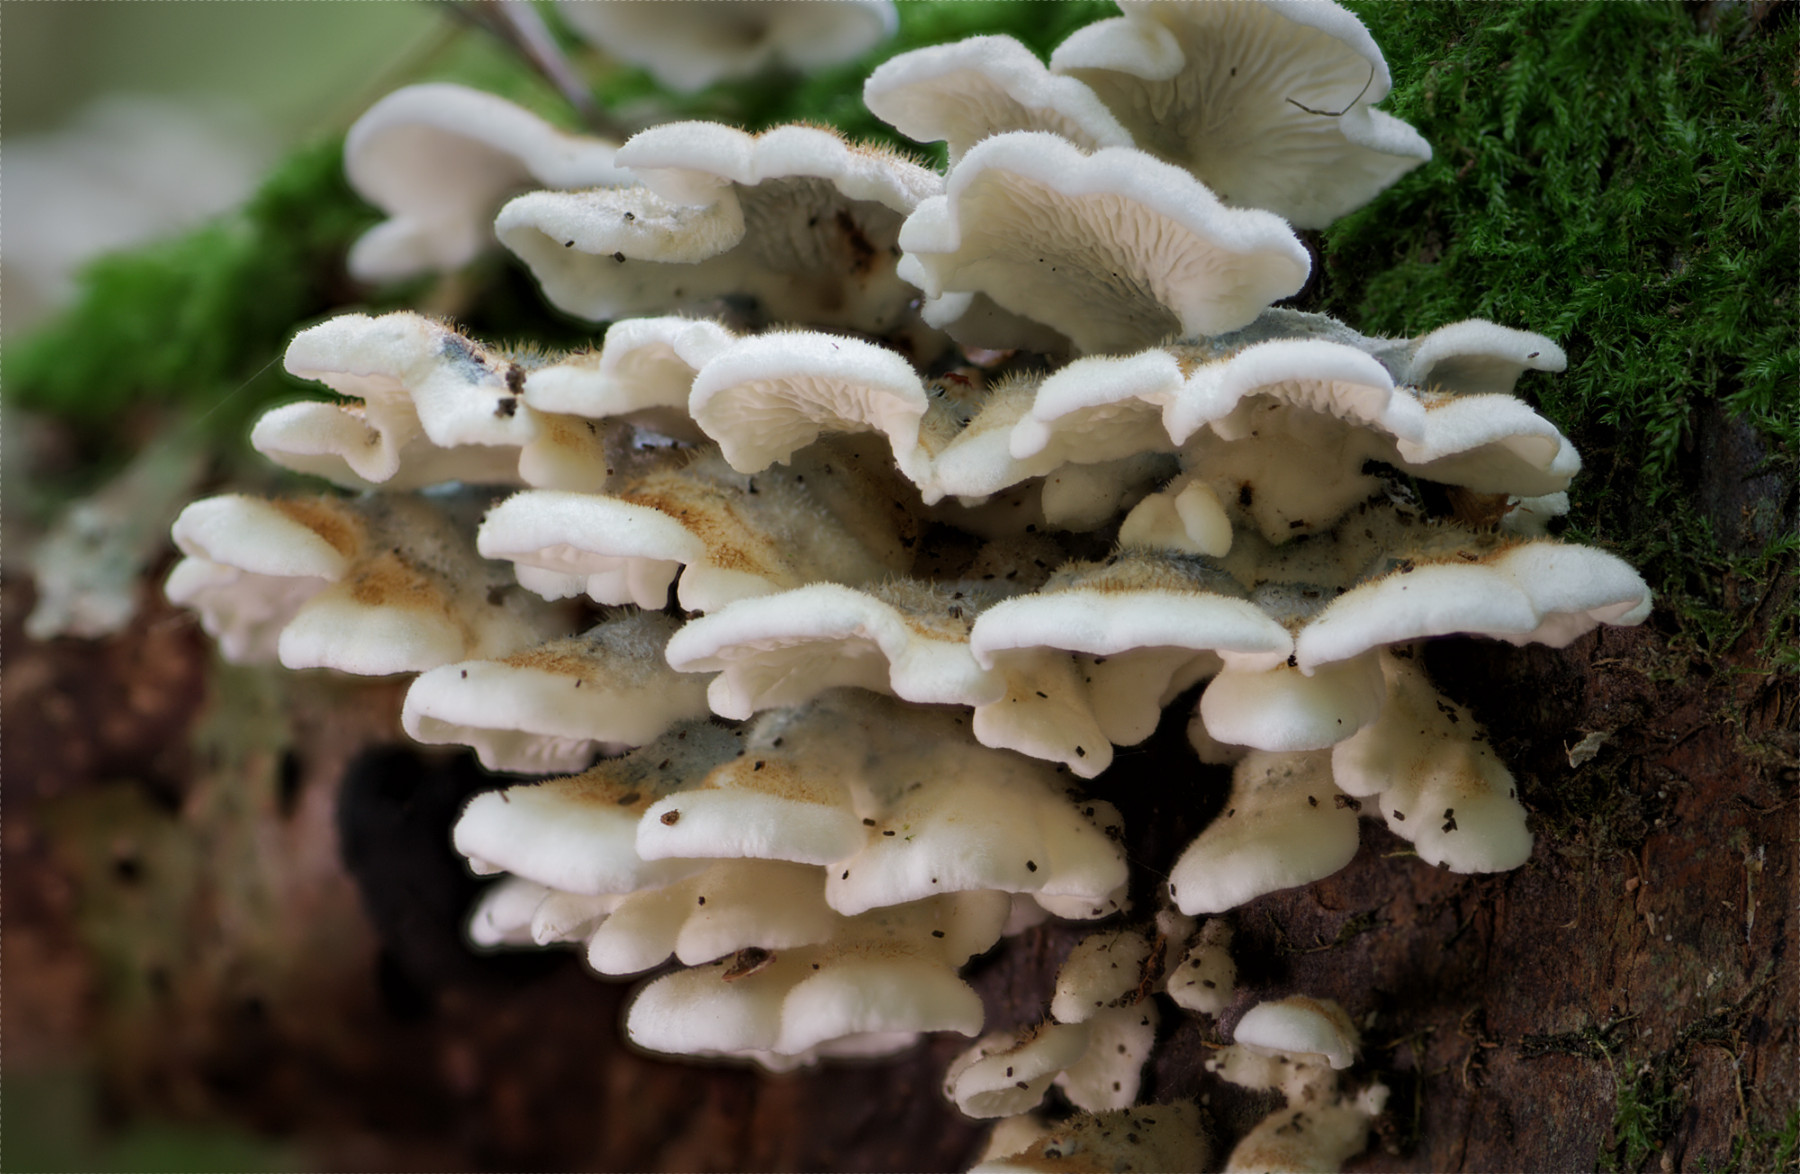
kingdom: Fungi
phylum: Basidiomycota
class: Agaricomycetes
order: Amylocorticiales
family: Amylocorticiaceae
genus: Plicaturopsis
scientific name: Plicaturopsis crispa
